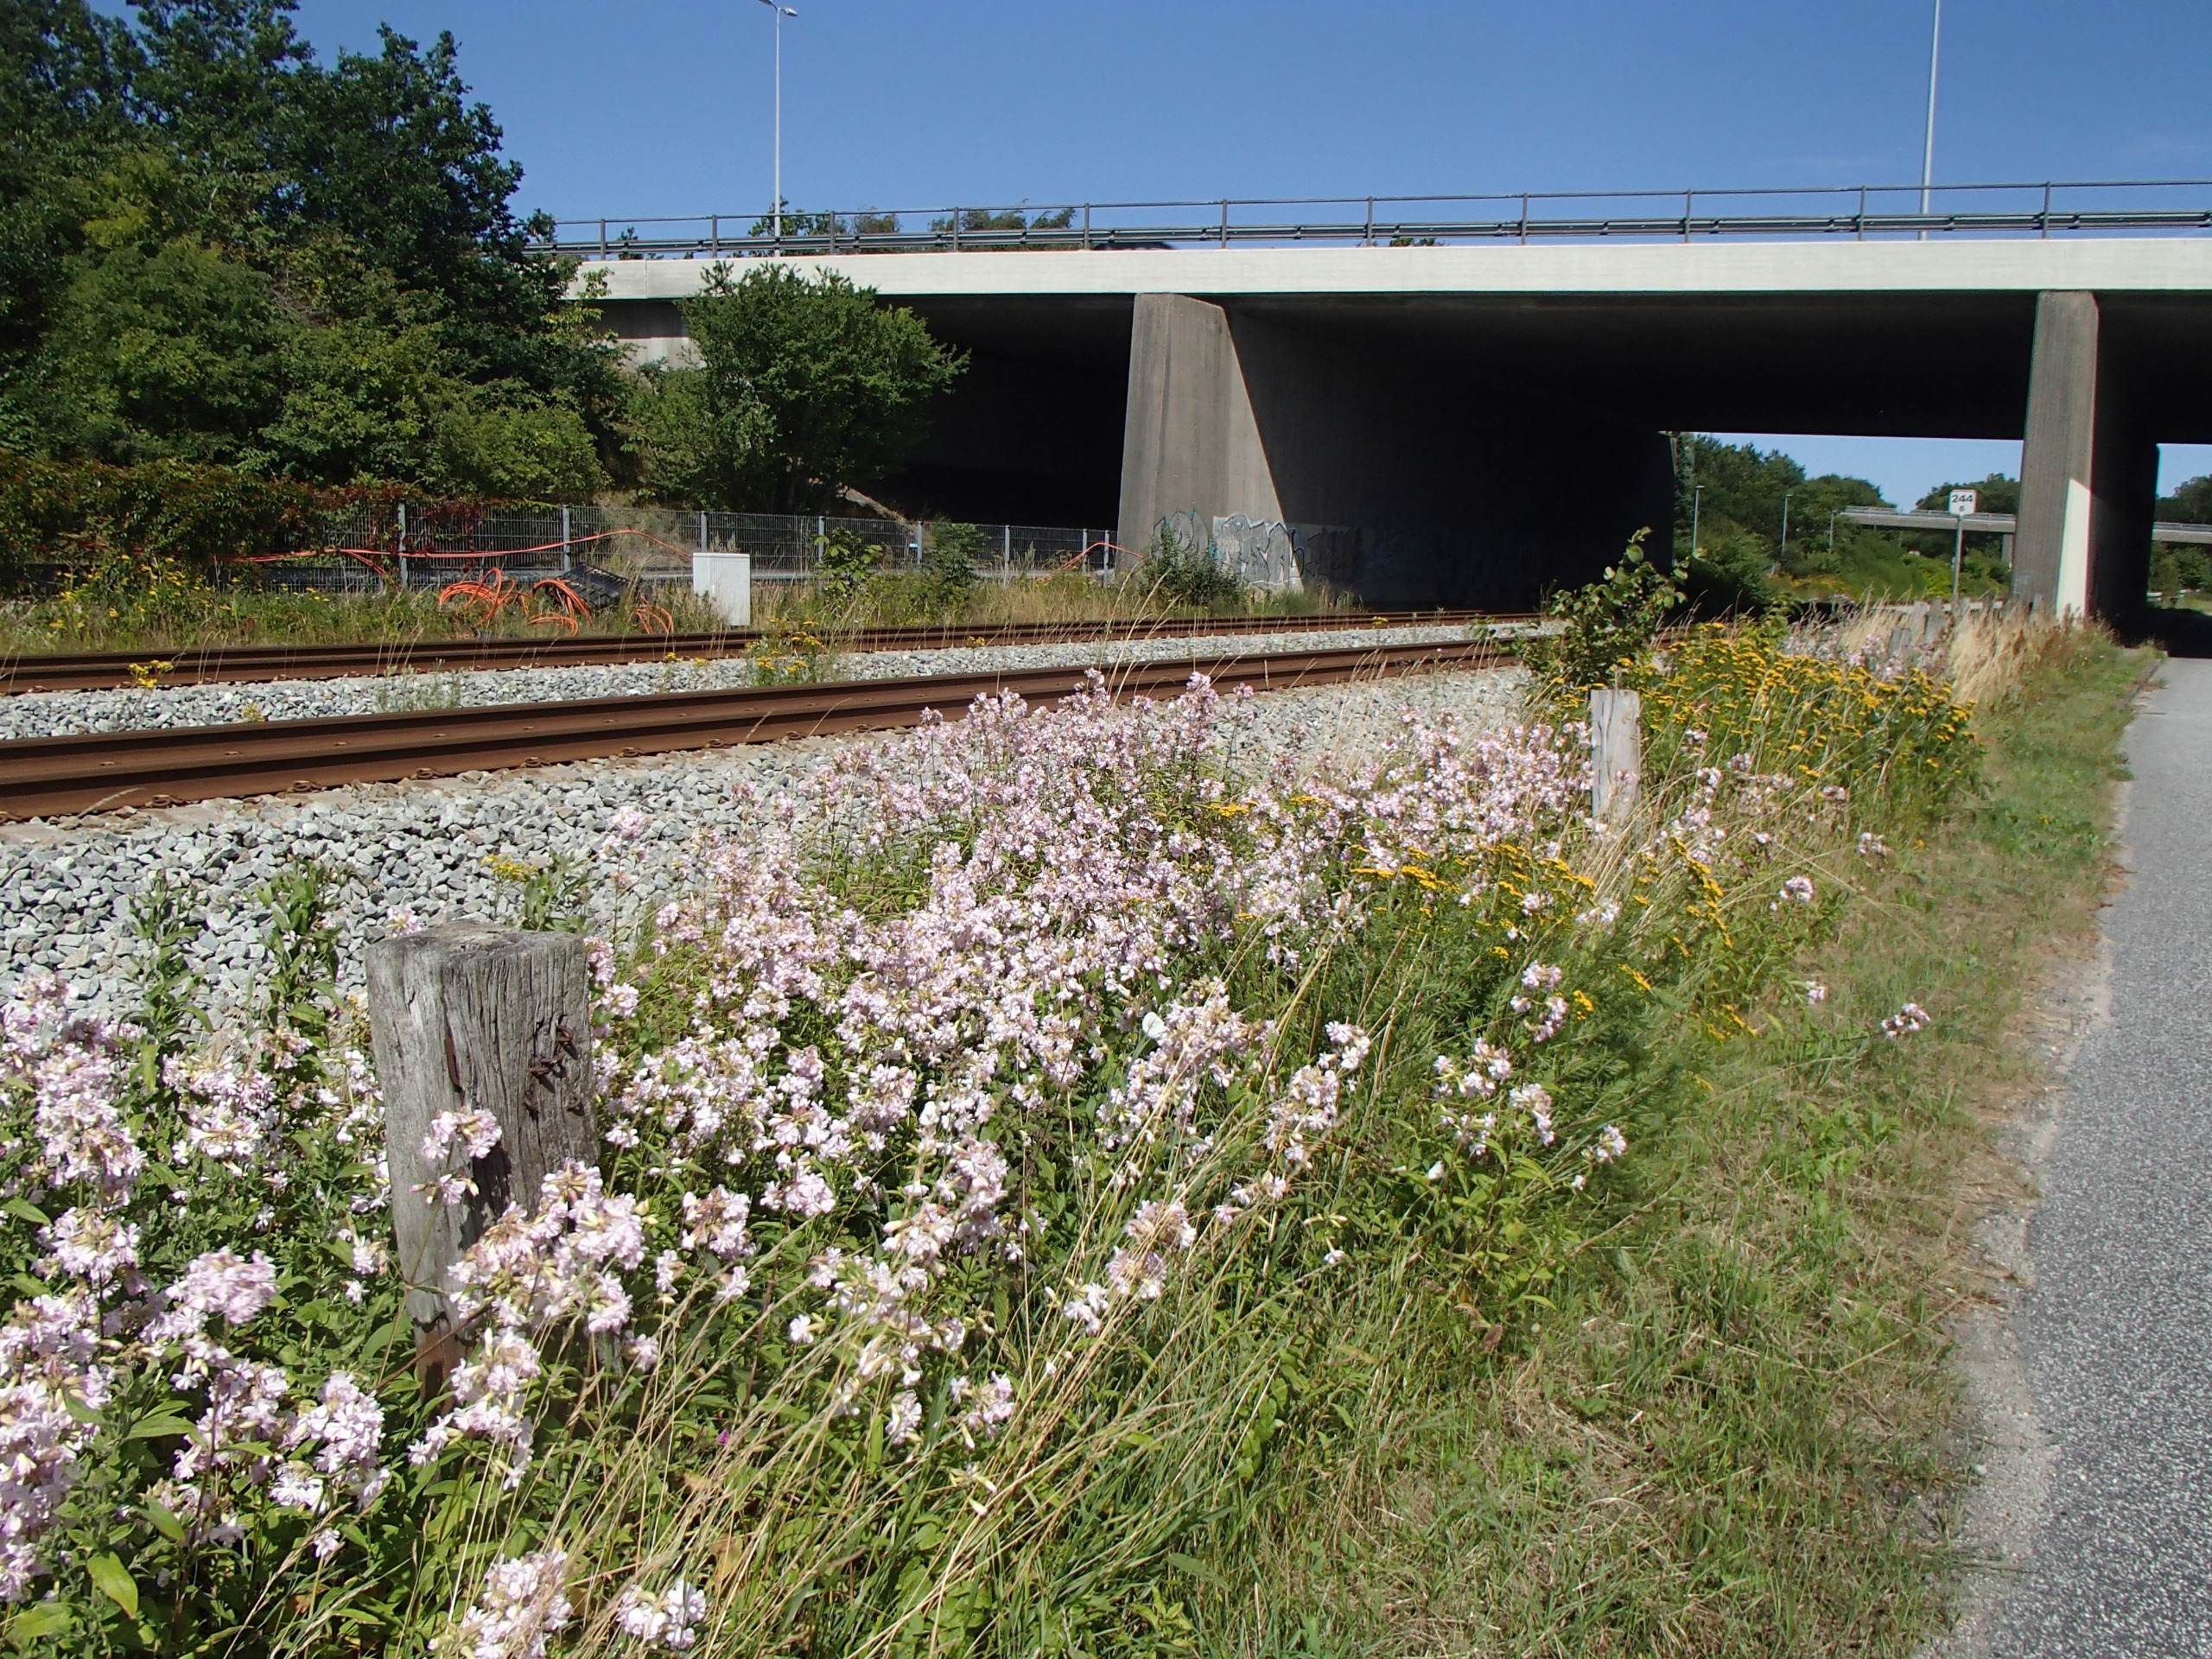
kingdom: Plantae
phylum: Tracheophyta
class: Magnoliopsida
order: Caryophyllales
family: Caryophyllaceae
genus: Saponaria
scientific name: Saponaria officinalis
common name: Sæbeurt
